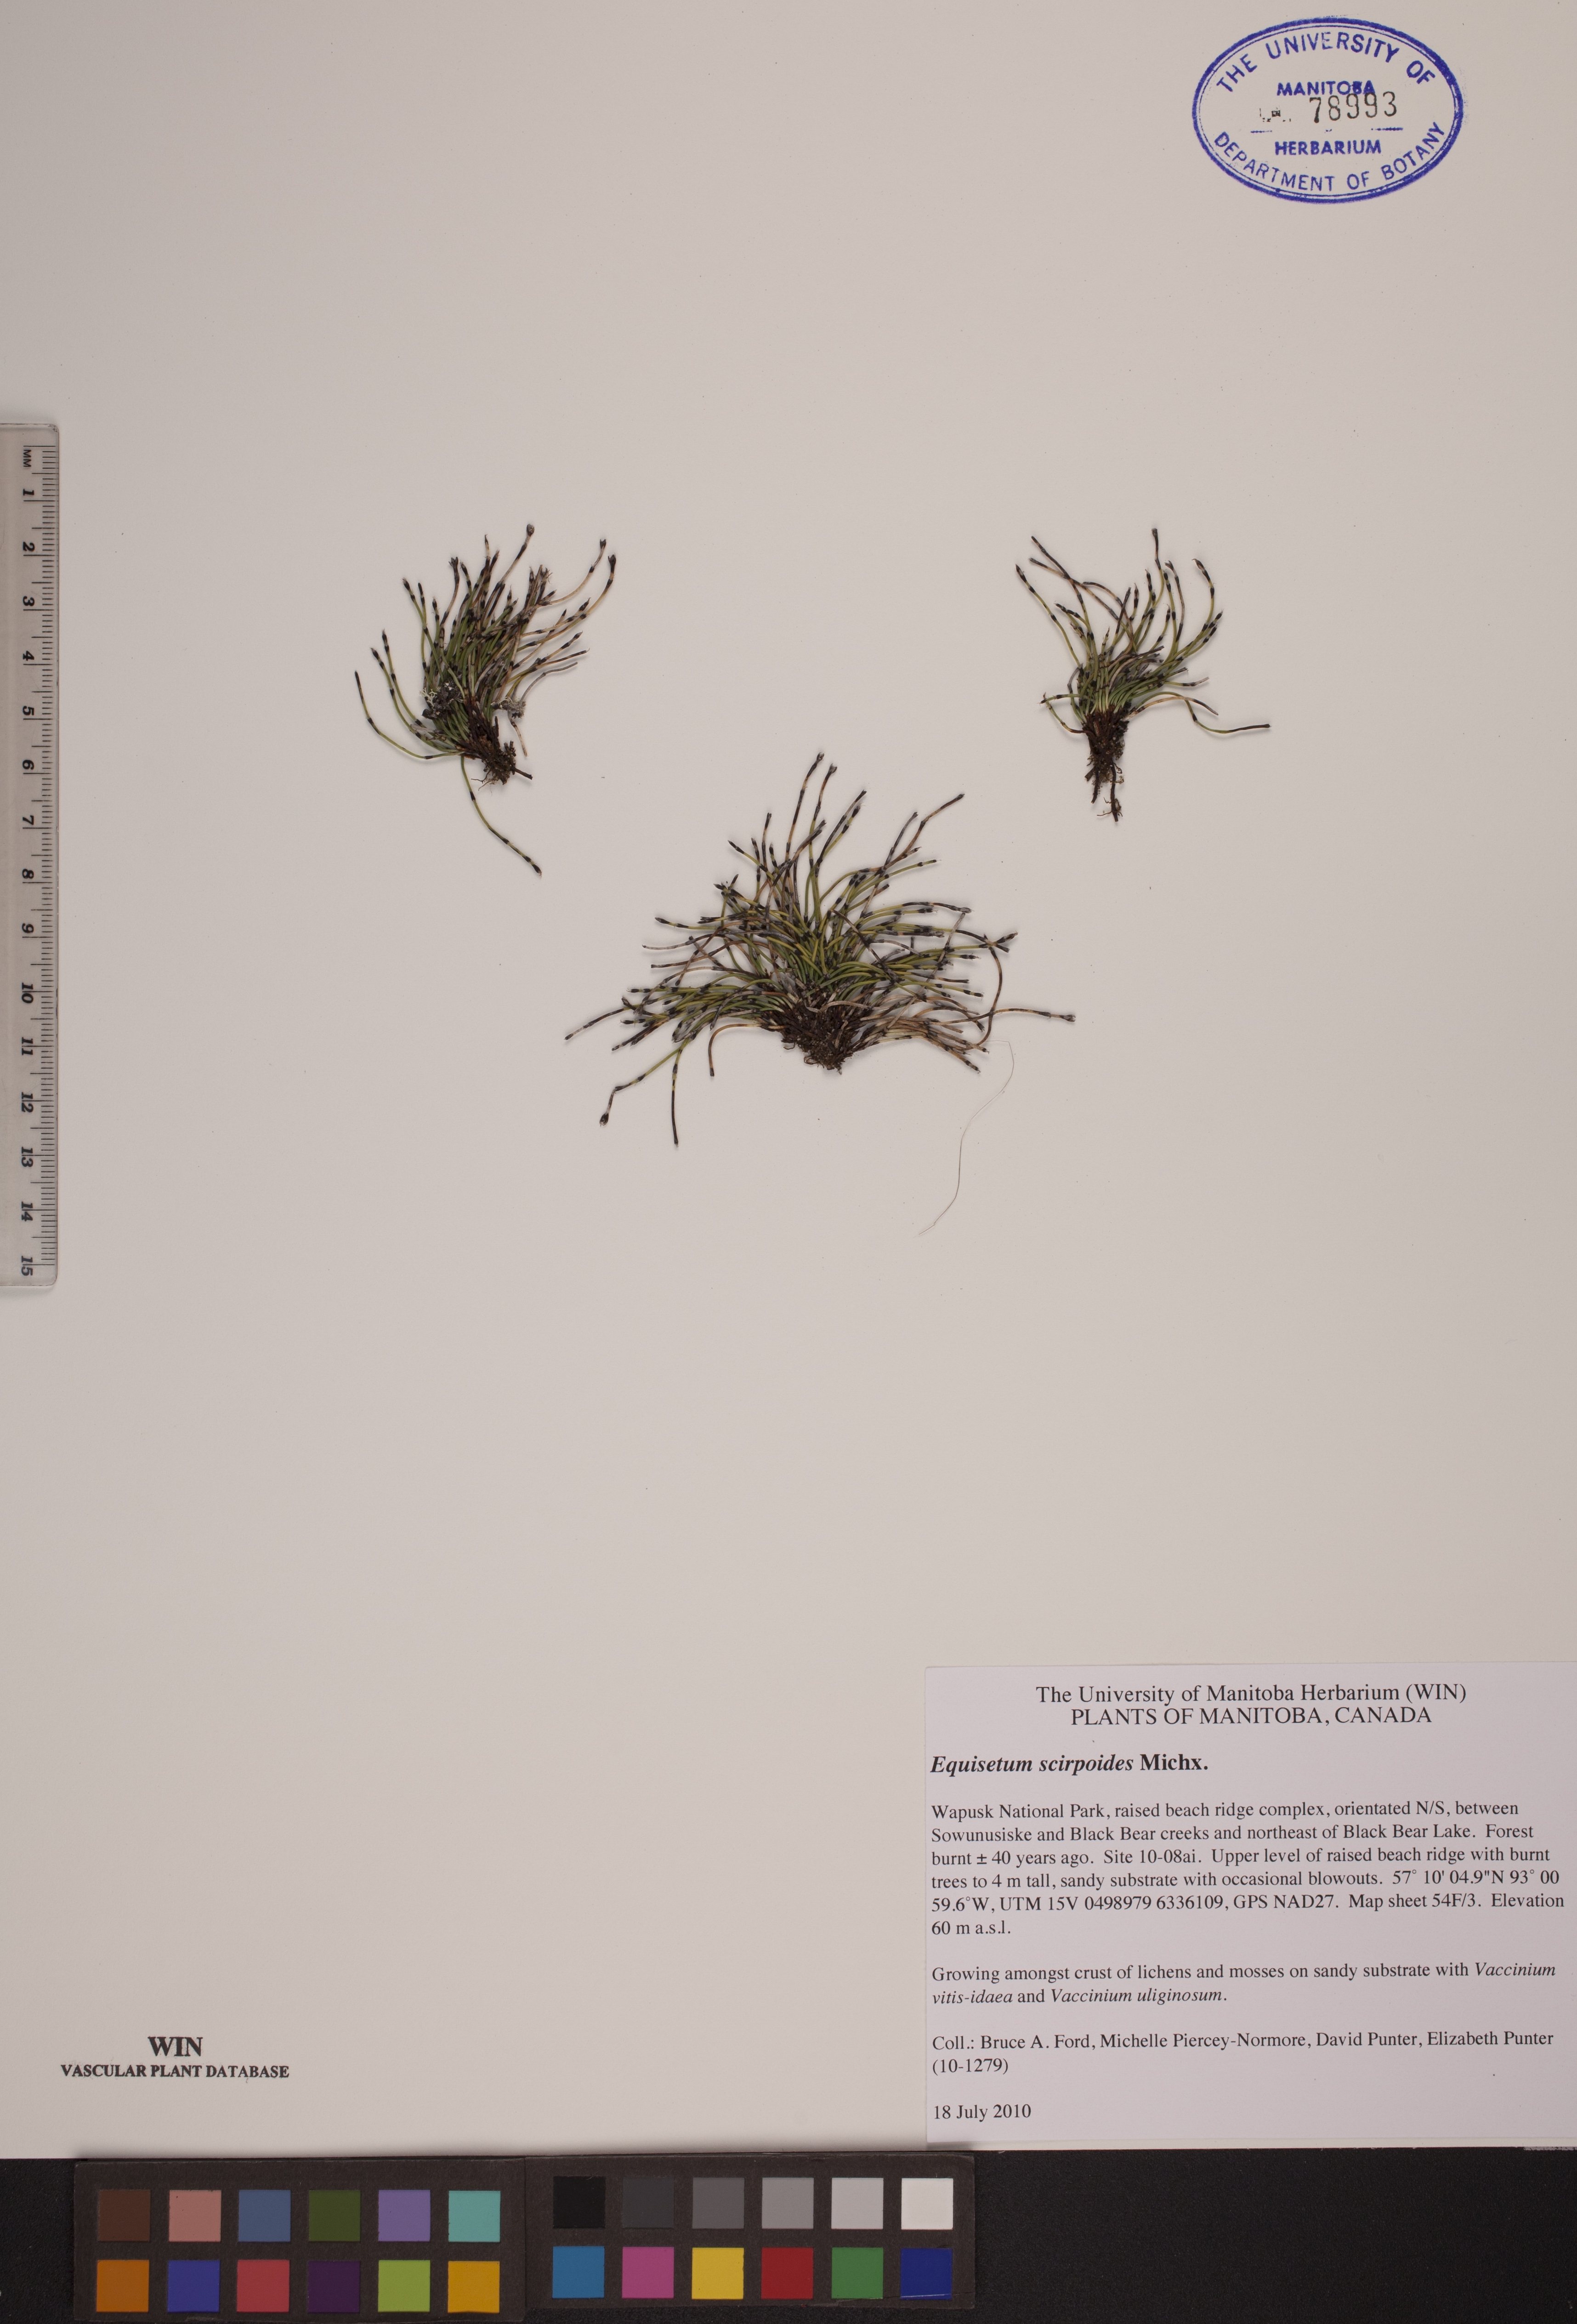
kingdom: Plantae
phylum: Tracheophyta
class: Polypodiopsida
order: Equisetales
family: Equisetaceae
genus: Equisetum
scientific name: Equisetum scirpoides
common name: Delicate horsetail
